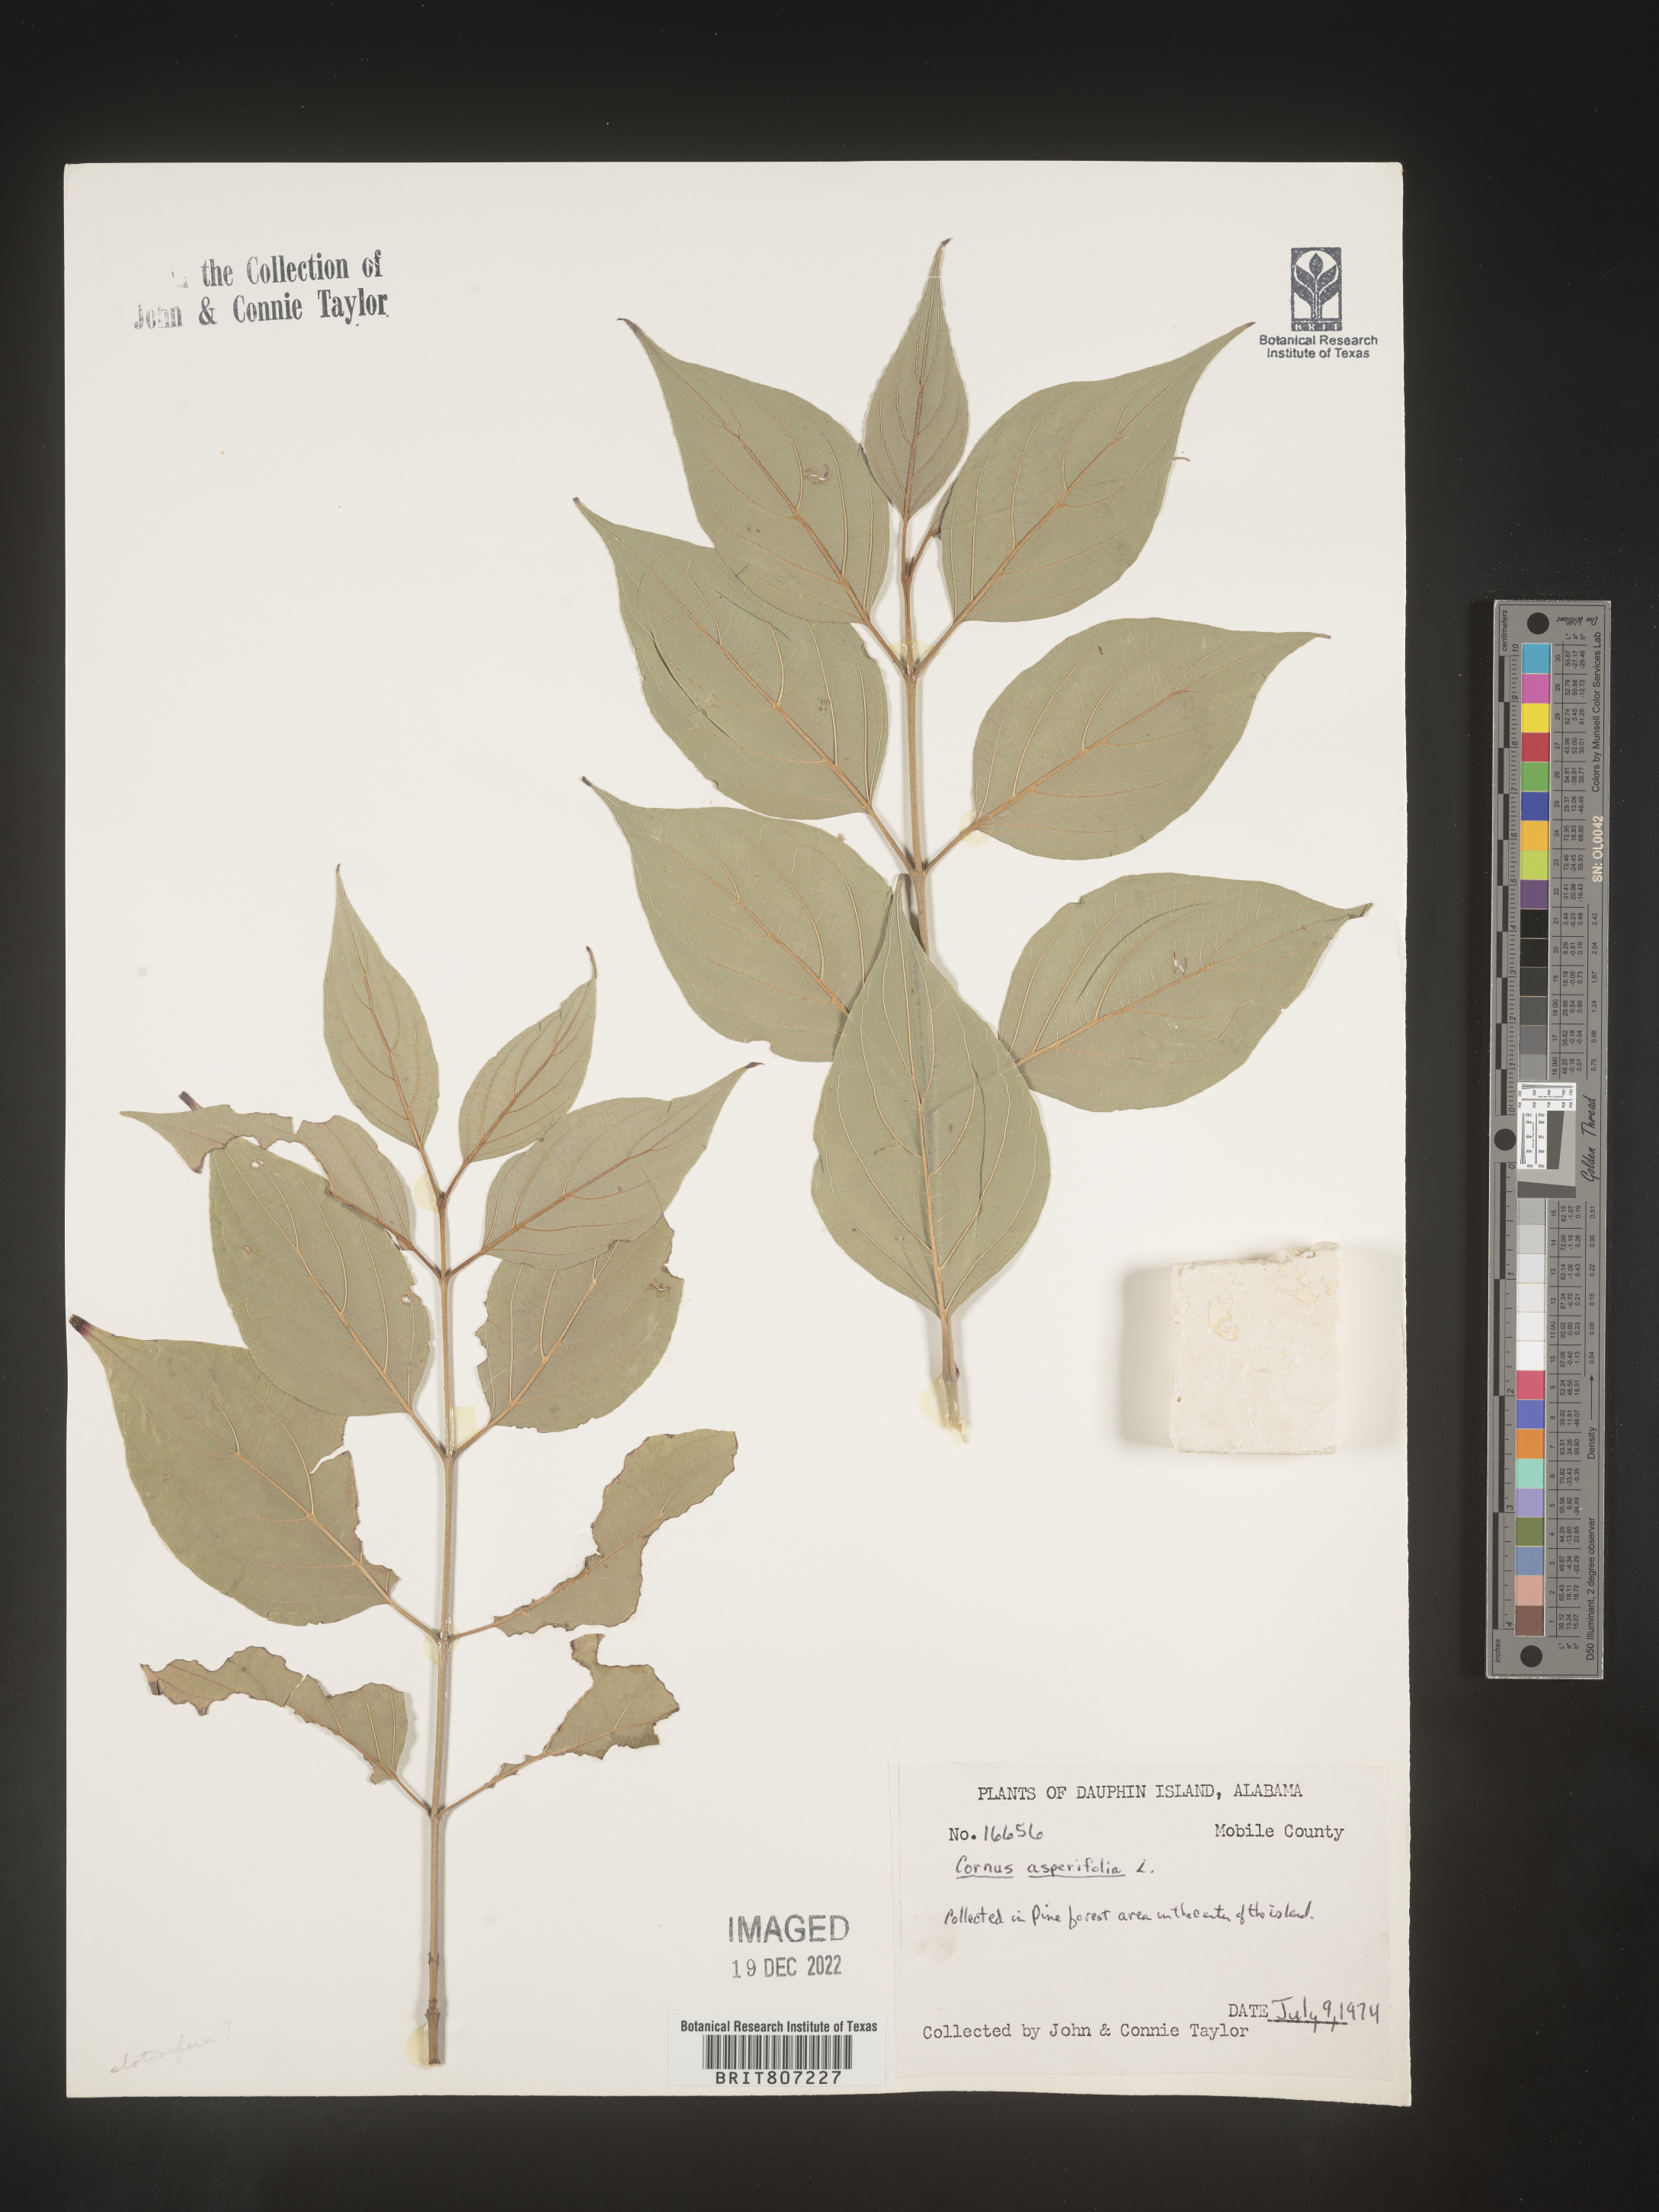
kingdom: Plantae
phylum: Tracheophyta
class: Magnoliopsida
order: Cornales
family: Cornaceae
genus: Cornus
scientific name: Cornus asperifolia
